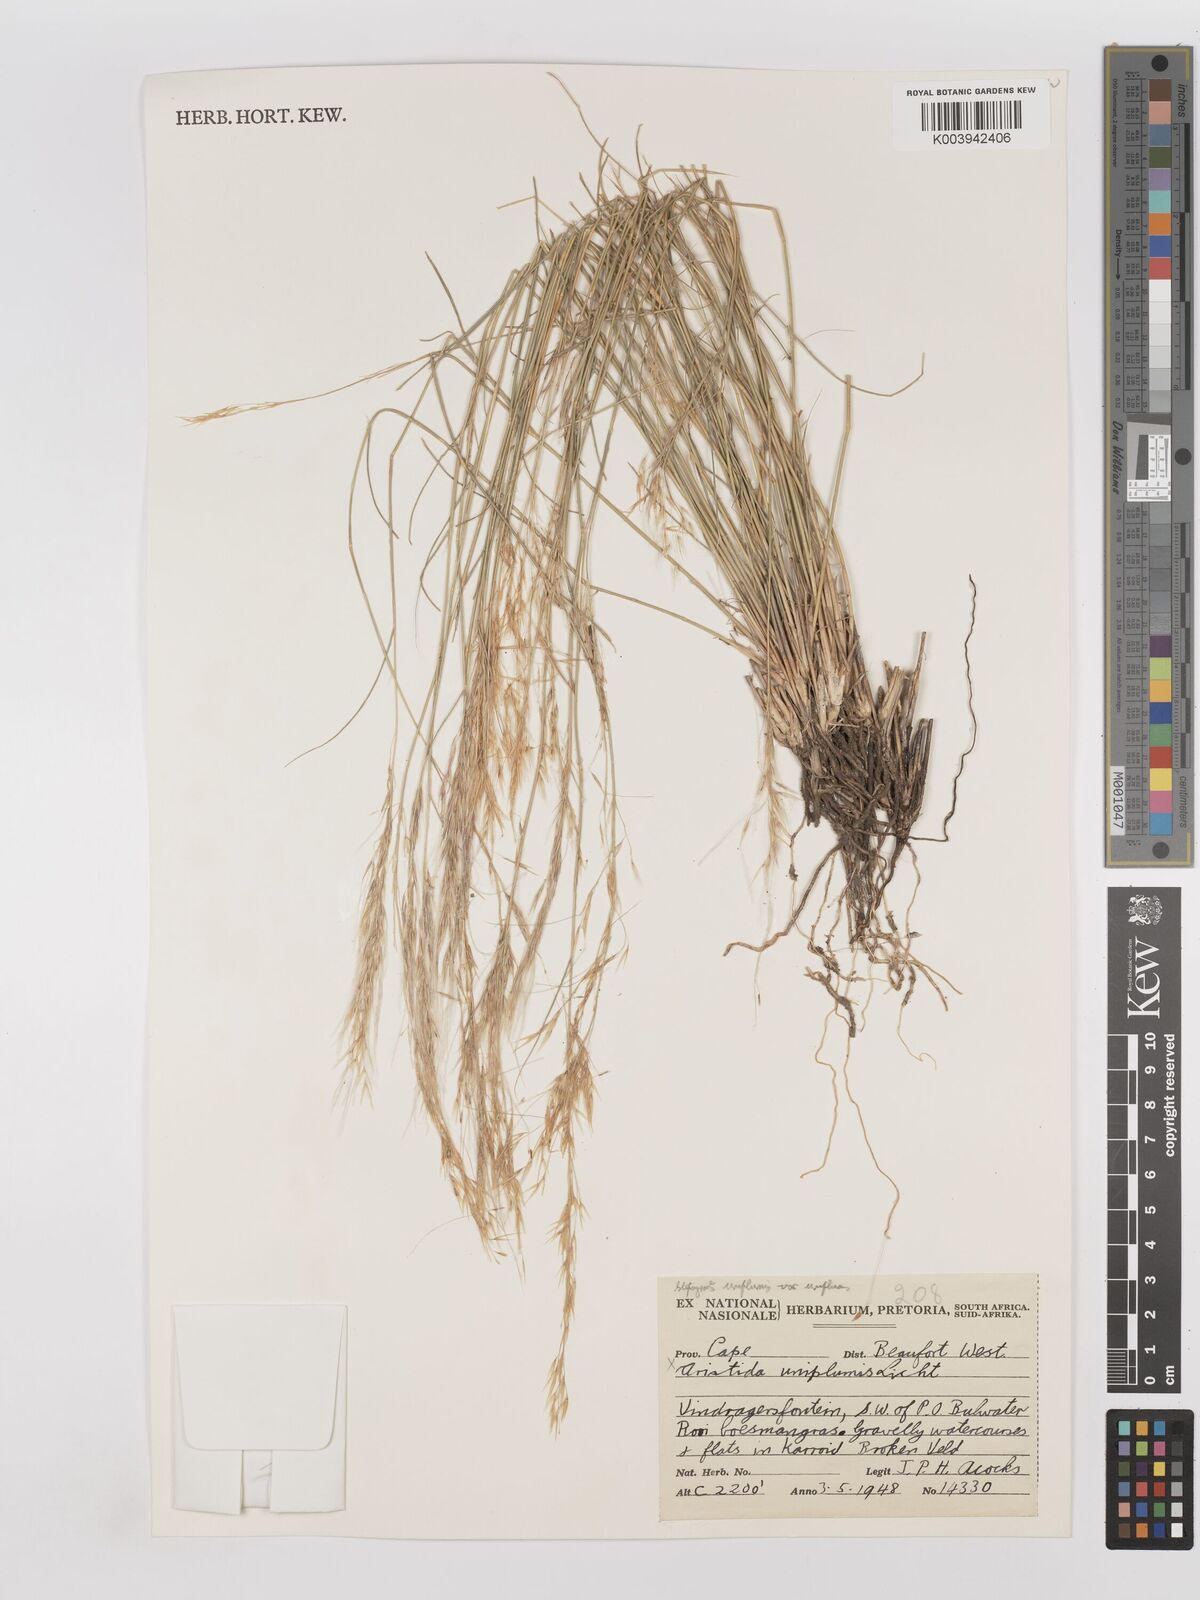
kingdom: Plantae
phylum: Tracheophyta
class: Liliopsida
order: Poales
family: Poaceae
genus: Stipagrostis
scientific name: Stipagrostis uniplumis
